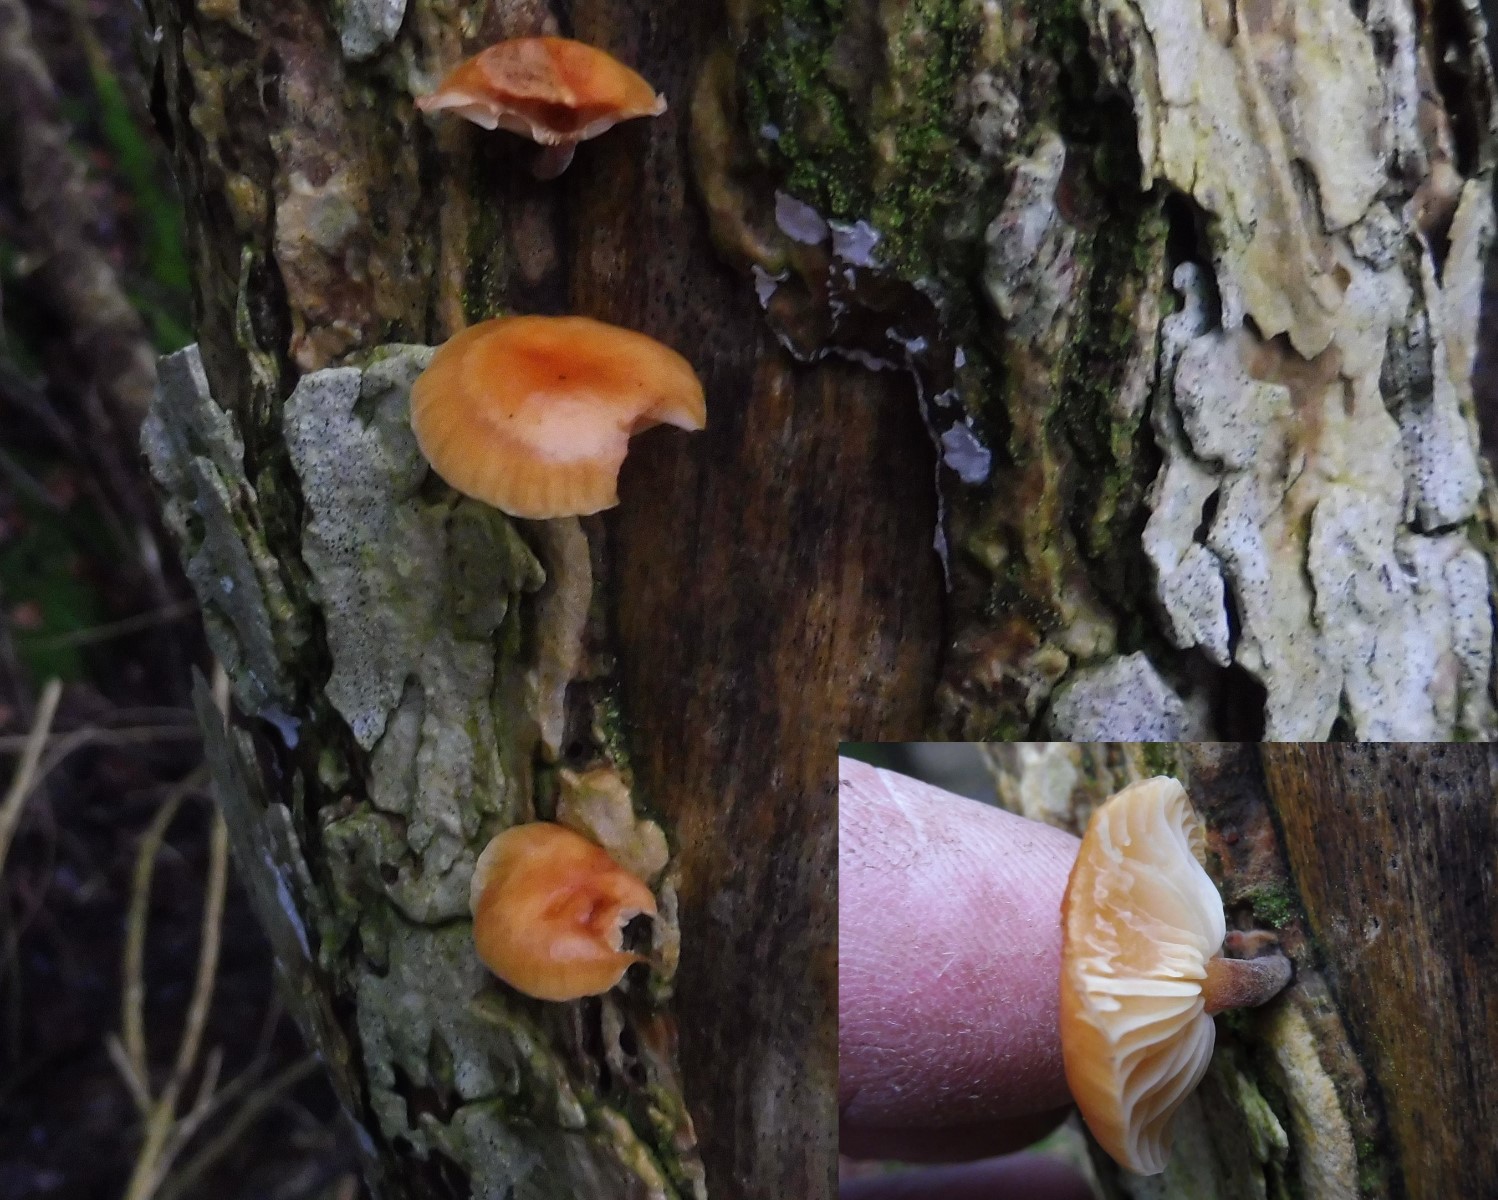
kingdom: Fungi
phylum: Basidiomycota
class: Agaricomycetes
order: Agaricales
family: Physalacriaceae
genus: Flammulina
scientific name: Flammulina velutipes
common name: gul fløjlsfod
